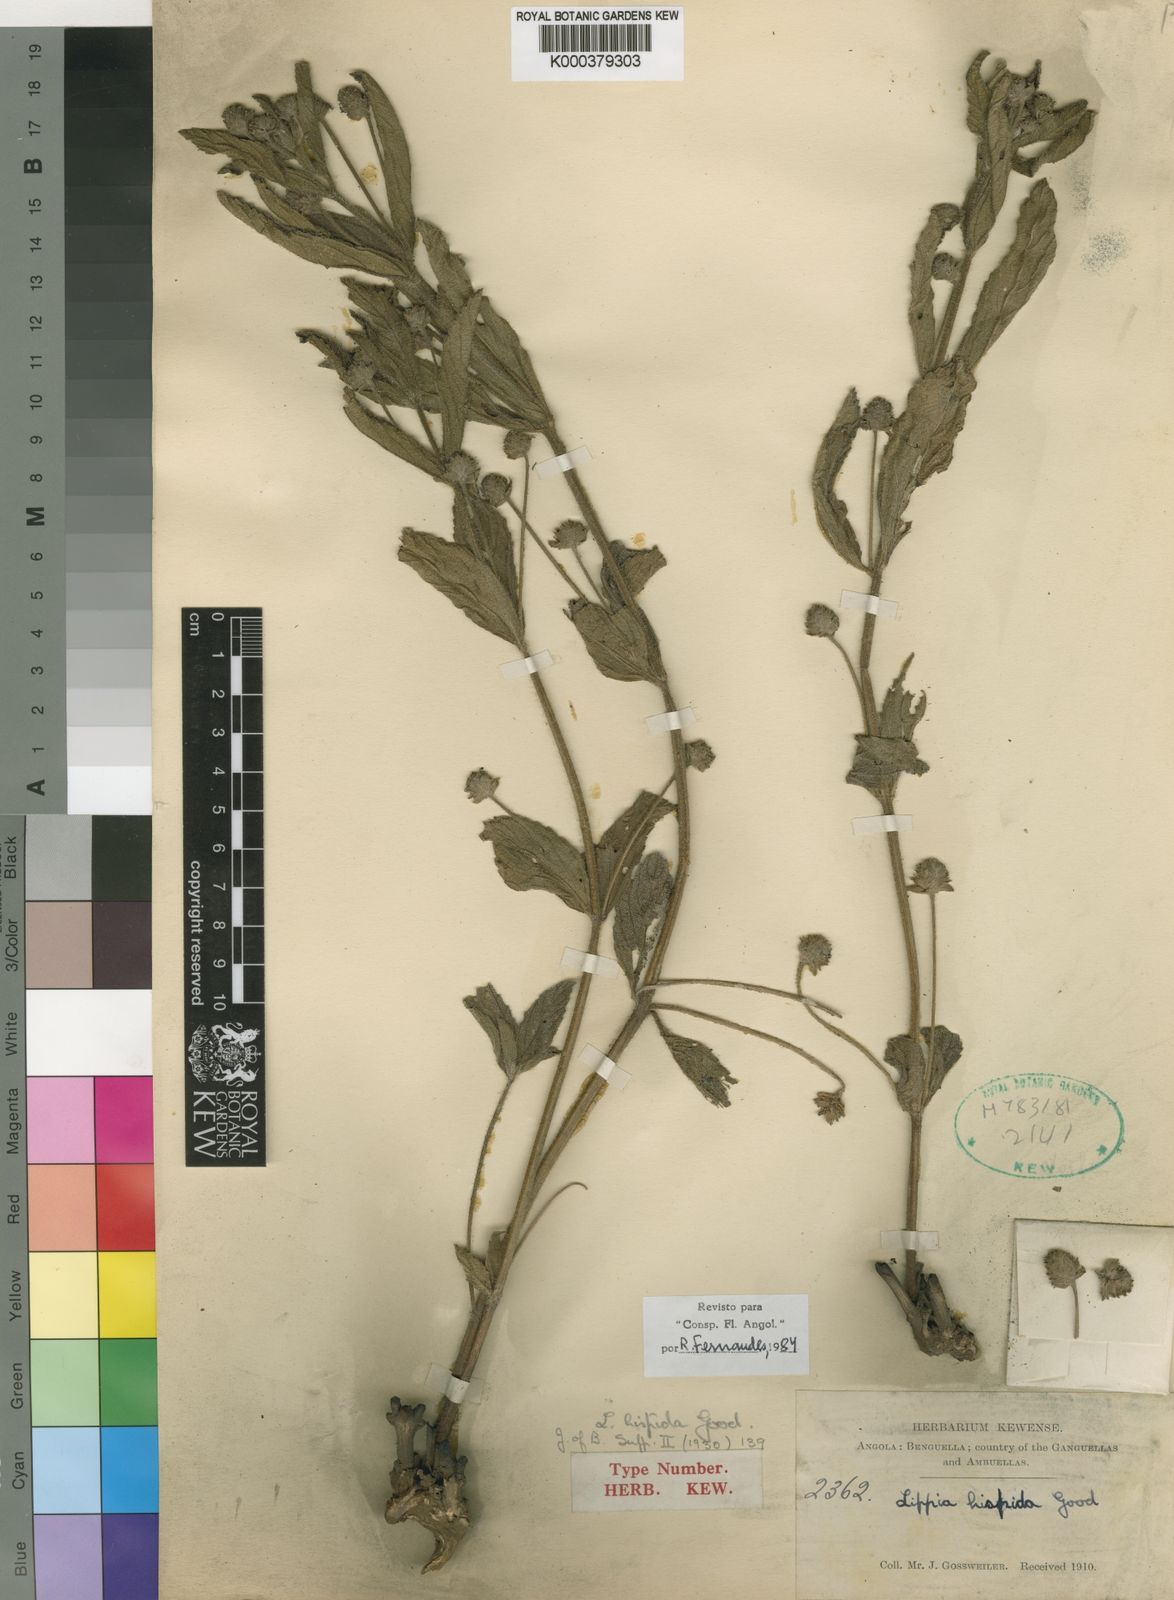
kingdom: Plantae
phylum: Tracheophyta
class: Magnoliopsida
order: Lamiales
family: Verbenaceae
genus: Lippia
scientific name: Lippia hispida
